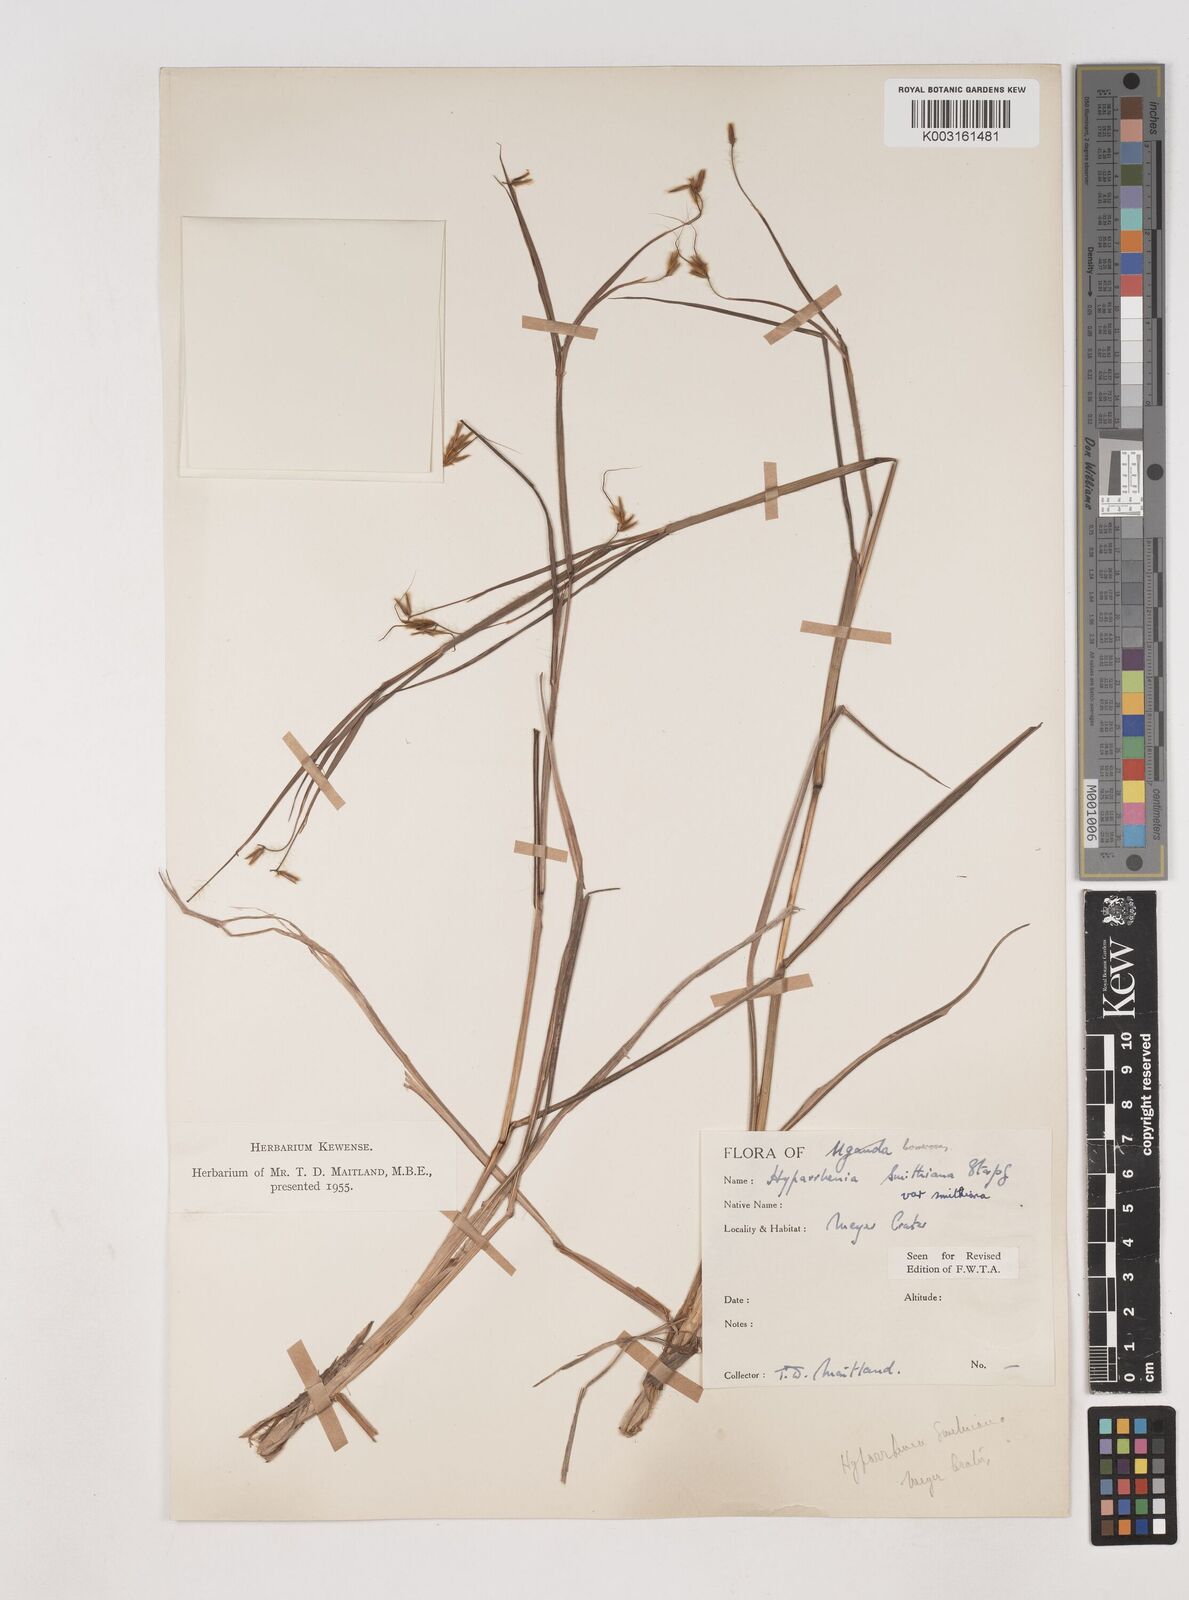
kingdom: Plantae
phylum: Tracheophyta
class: Liliopsida
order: Poales
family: Poaceae
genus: Hyparrhenia
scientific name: Hyparrhenia smithiana
